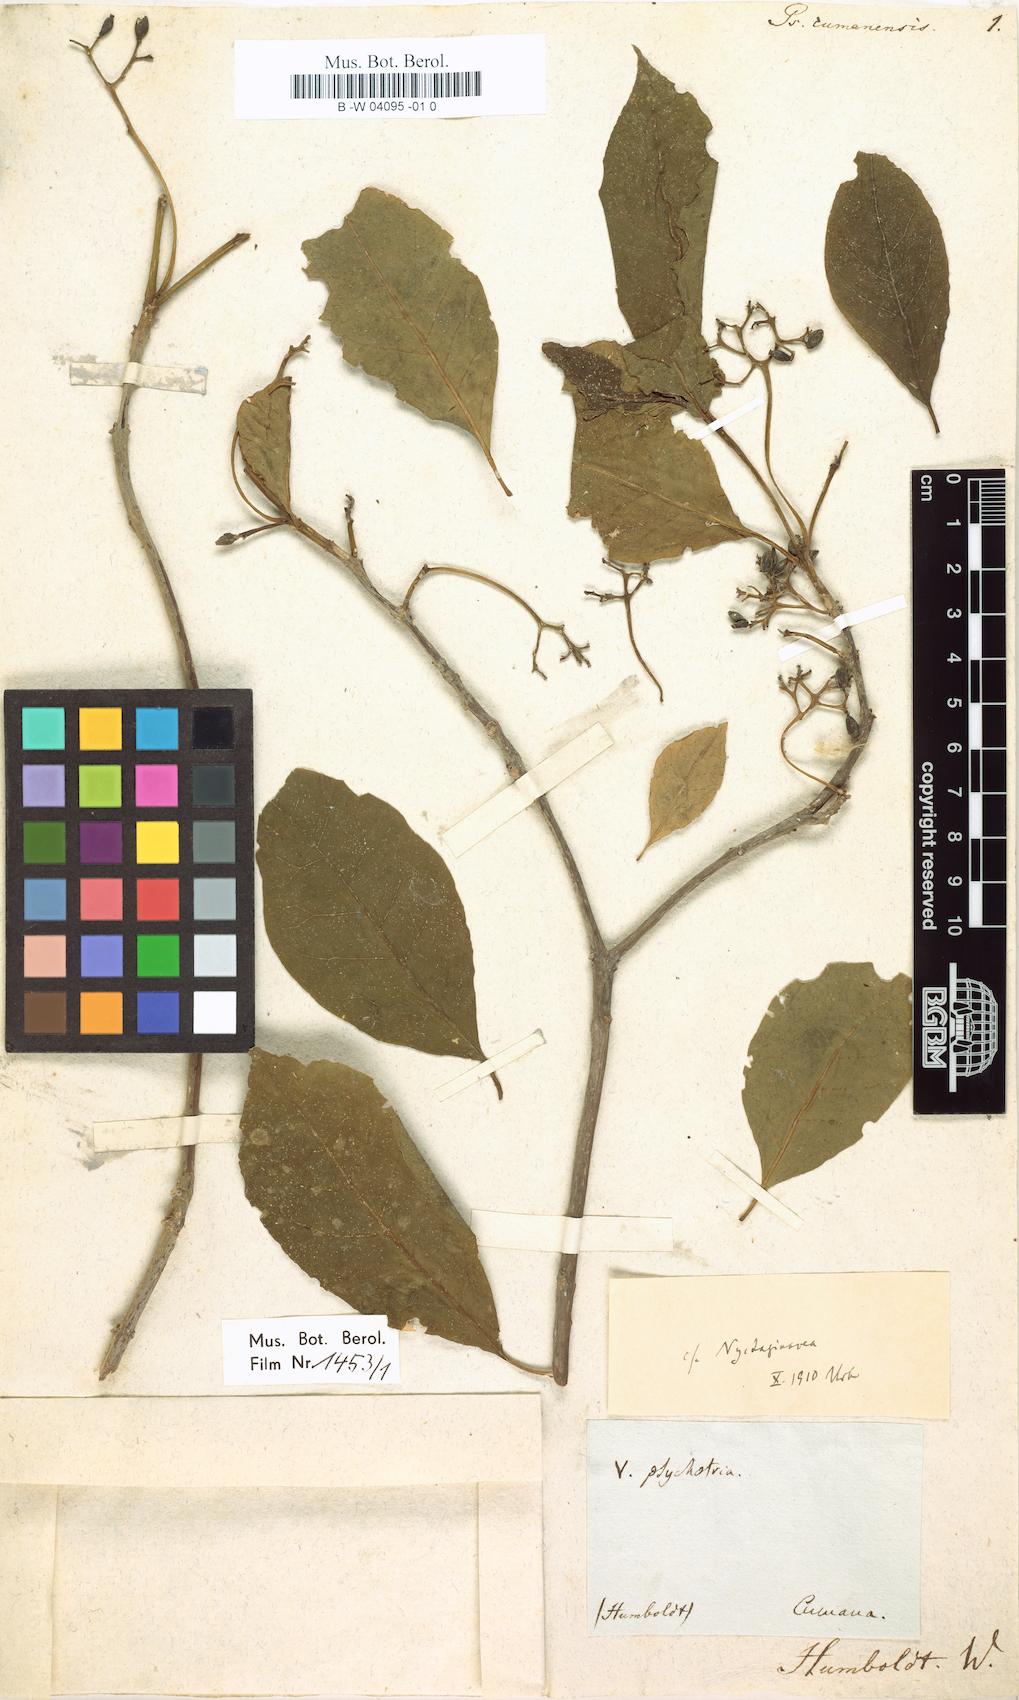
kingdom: Plantae
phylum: Tracheophyta
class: Magnoliopsida
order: Gentianales
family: Rubiaceae
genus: Psychotria
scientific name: Psychotria cumanensis
